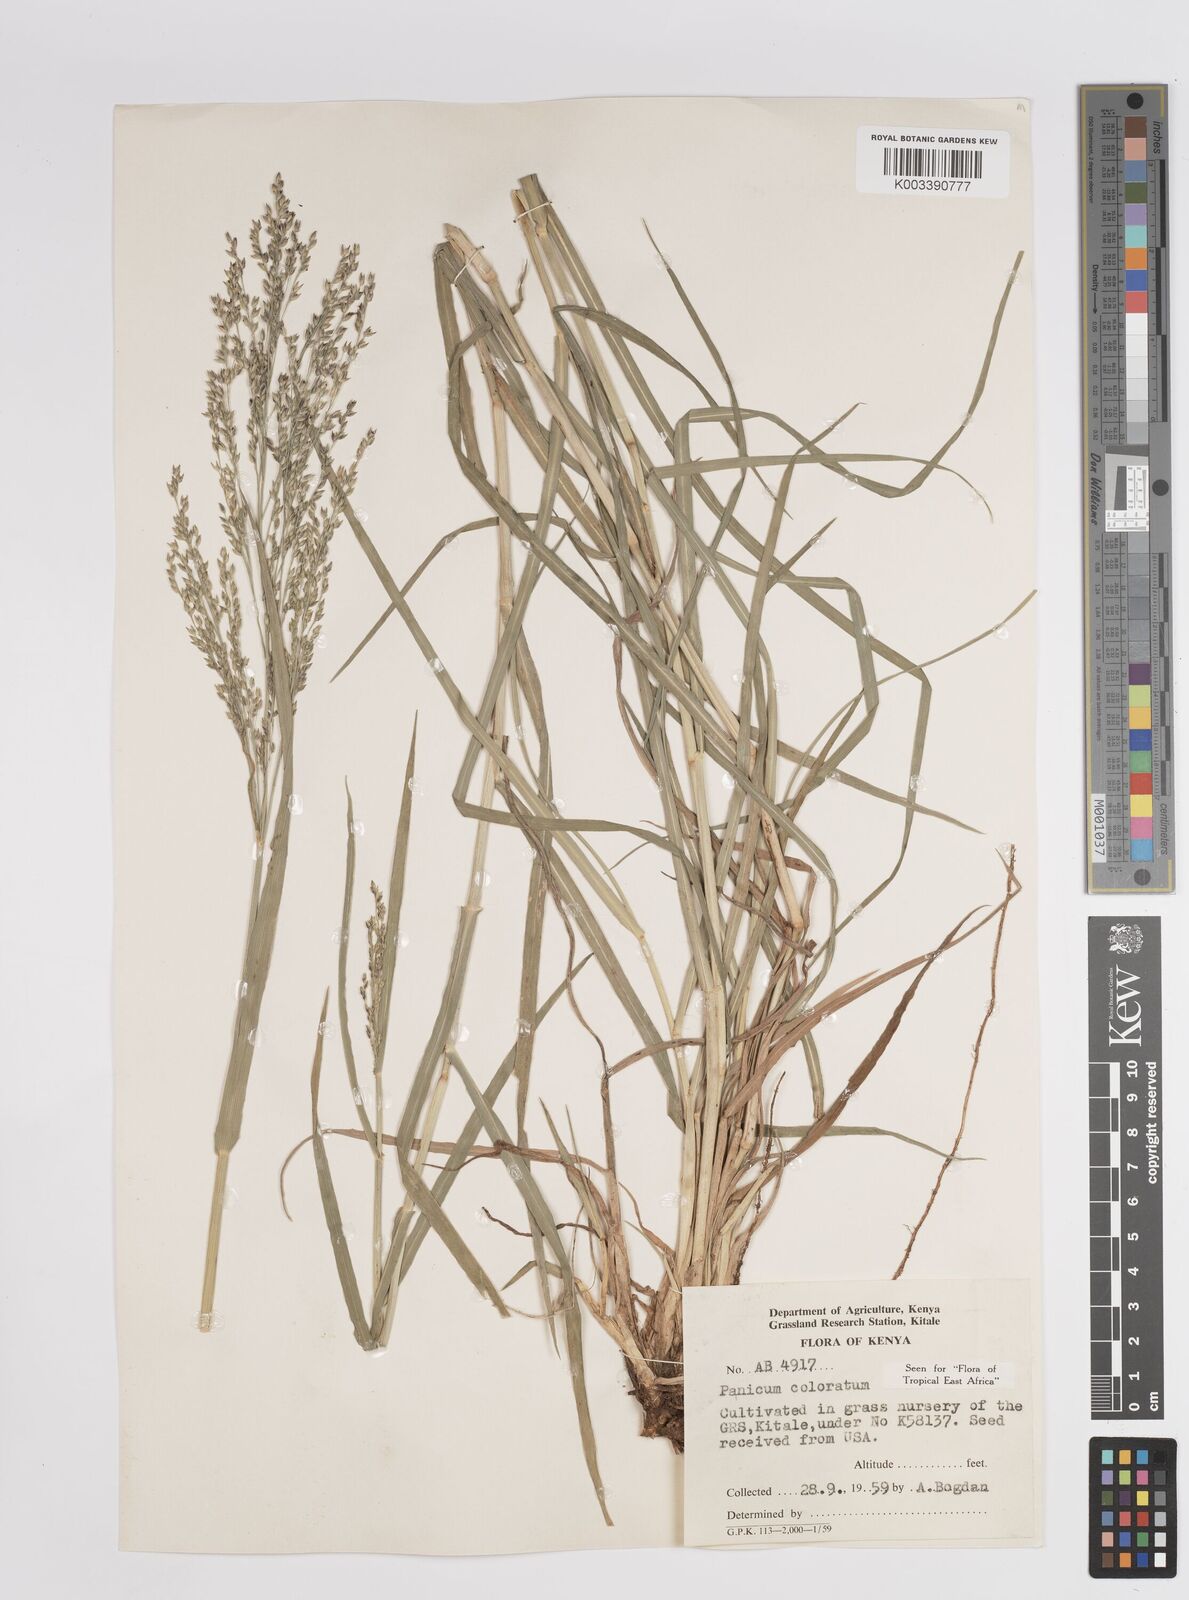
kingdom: Plantae
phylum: Tracheophyta
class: Liliopsida
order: Poales
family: Poaceae
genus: Panicum
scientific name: Panicum coloratum
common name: Kleingrass
